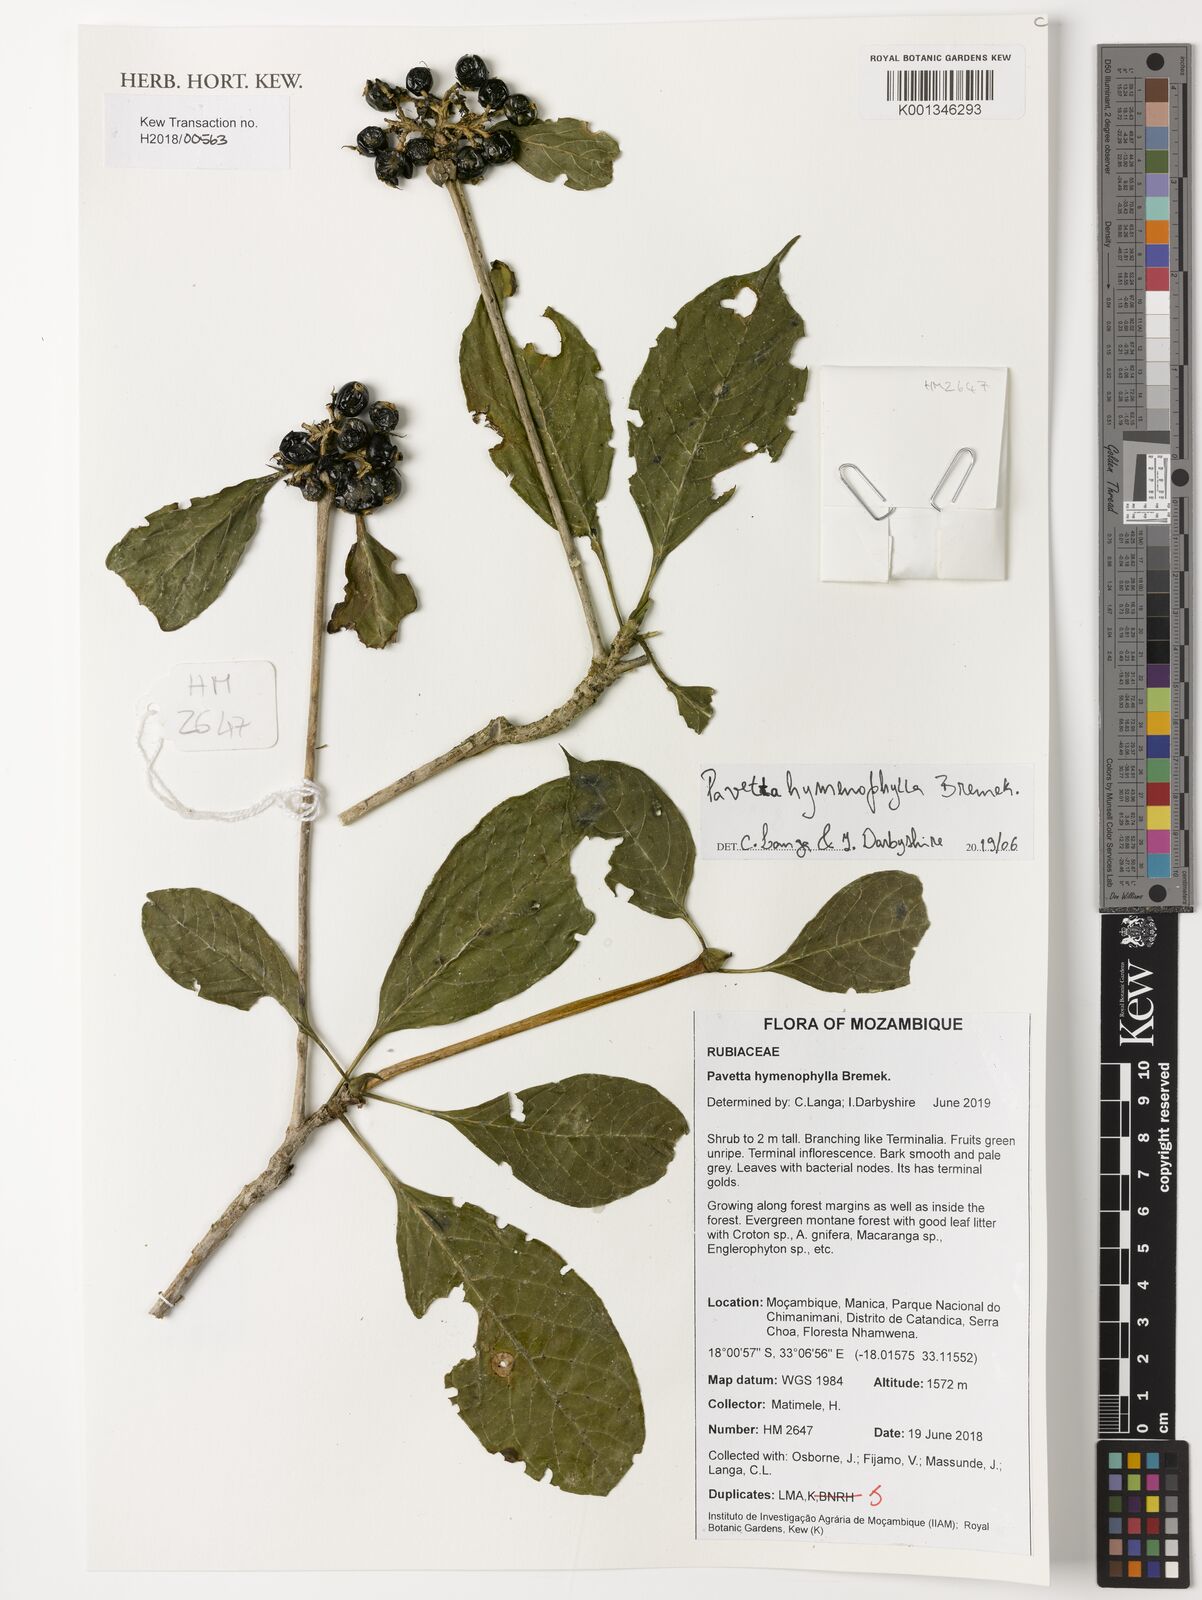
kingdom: Plantae
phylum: Tracheophyta
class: Magnoliopsida
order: Gentianales
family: Rubiaceae
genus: Pavetta
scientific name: Pavetta hymenophylla
